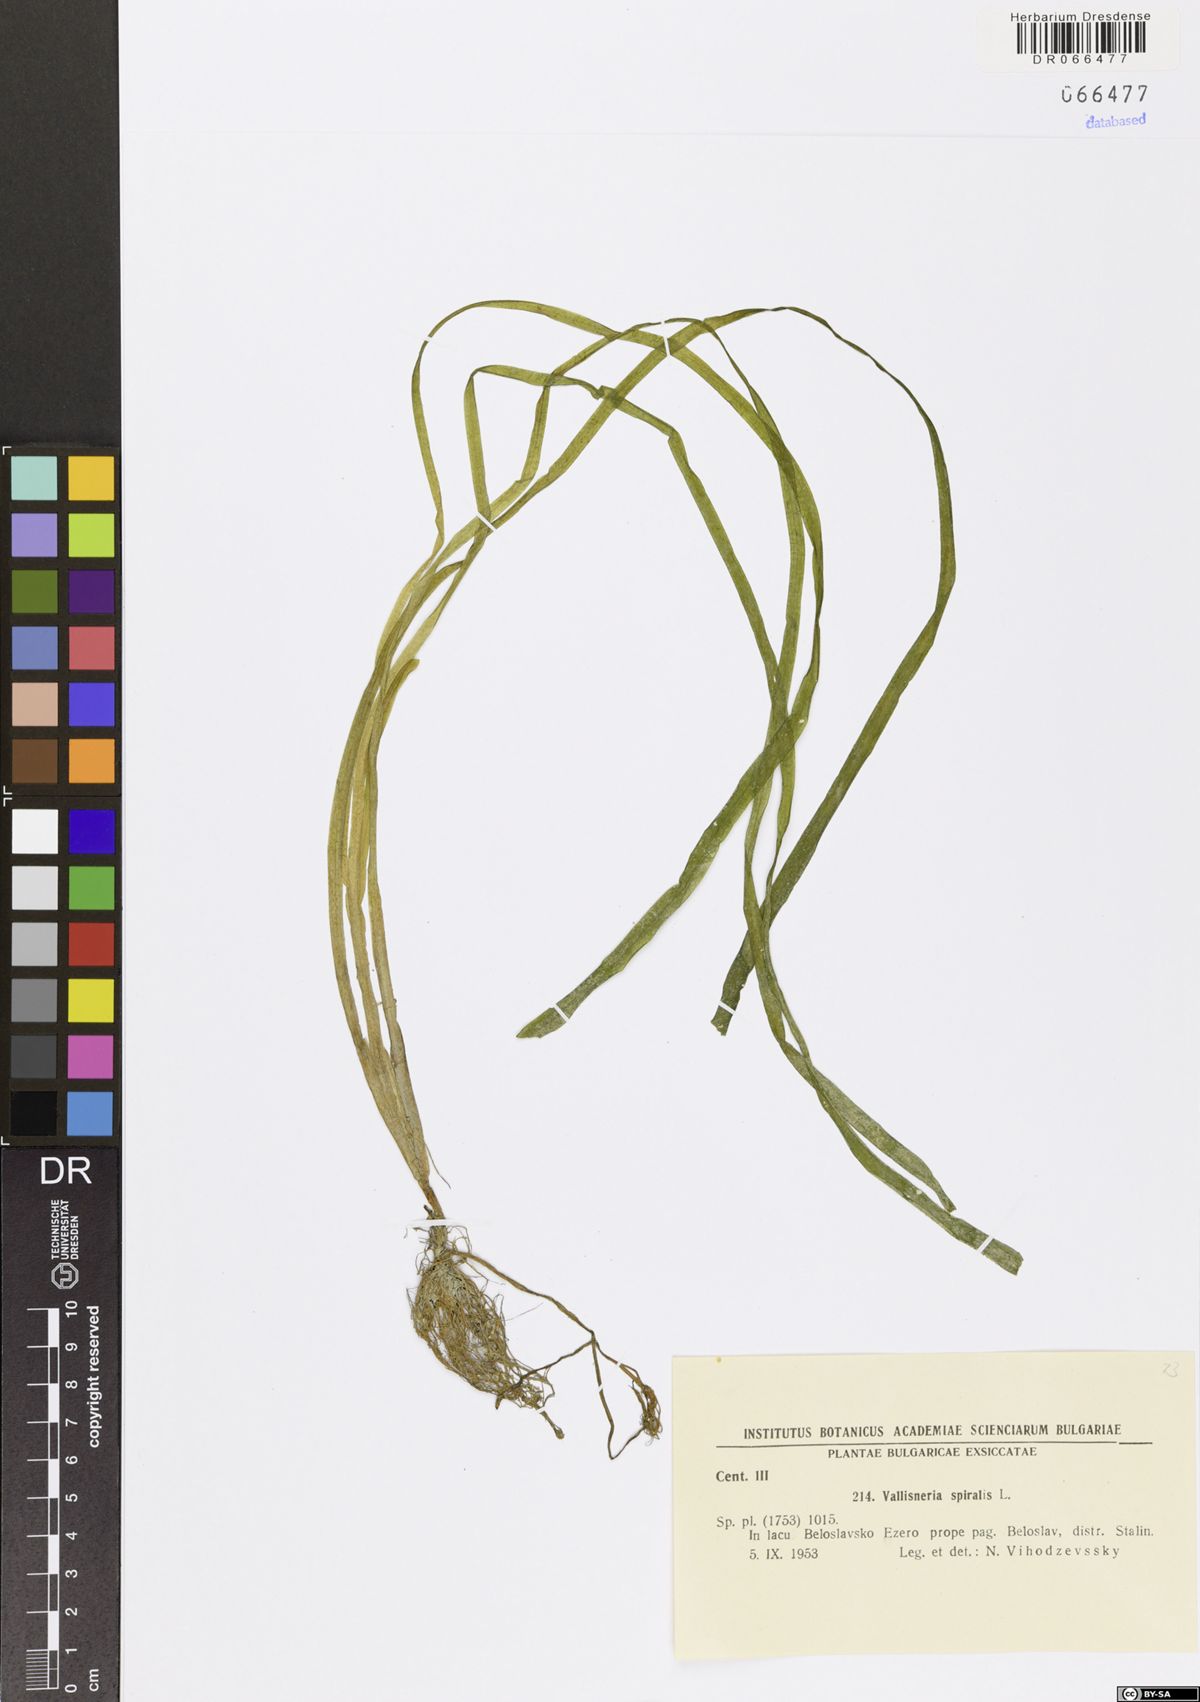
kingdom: Plantae
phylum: Tracheophyta
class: Liliopsida
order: Alismatales
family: Hydrocharitaceae
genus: Vallisneria
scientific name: Vallisneria spiralis
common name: Tapegrass
